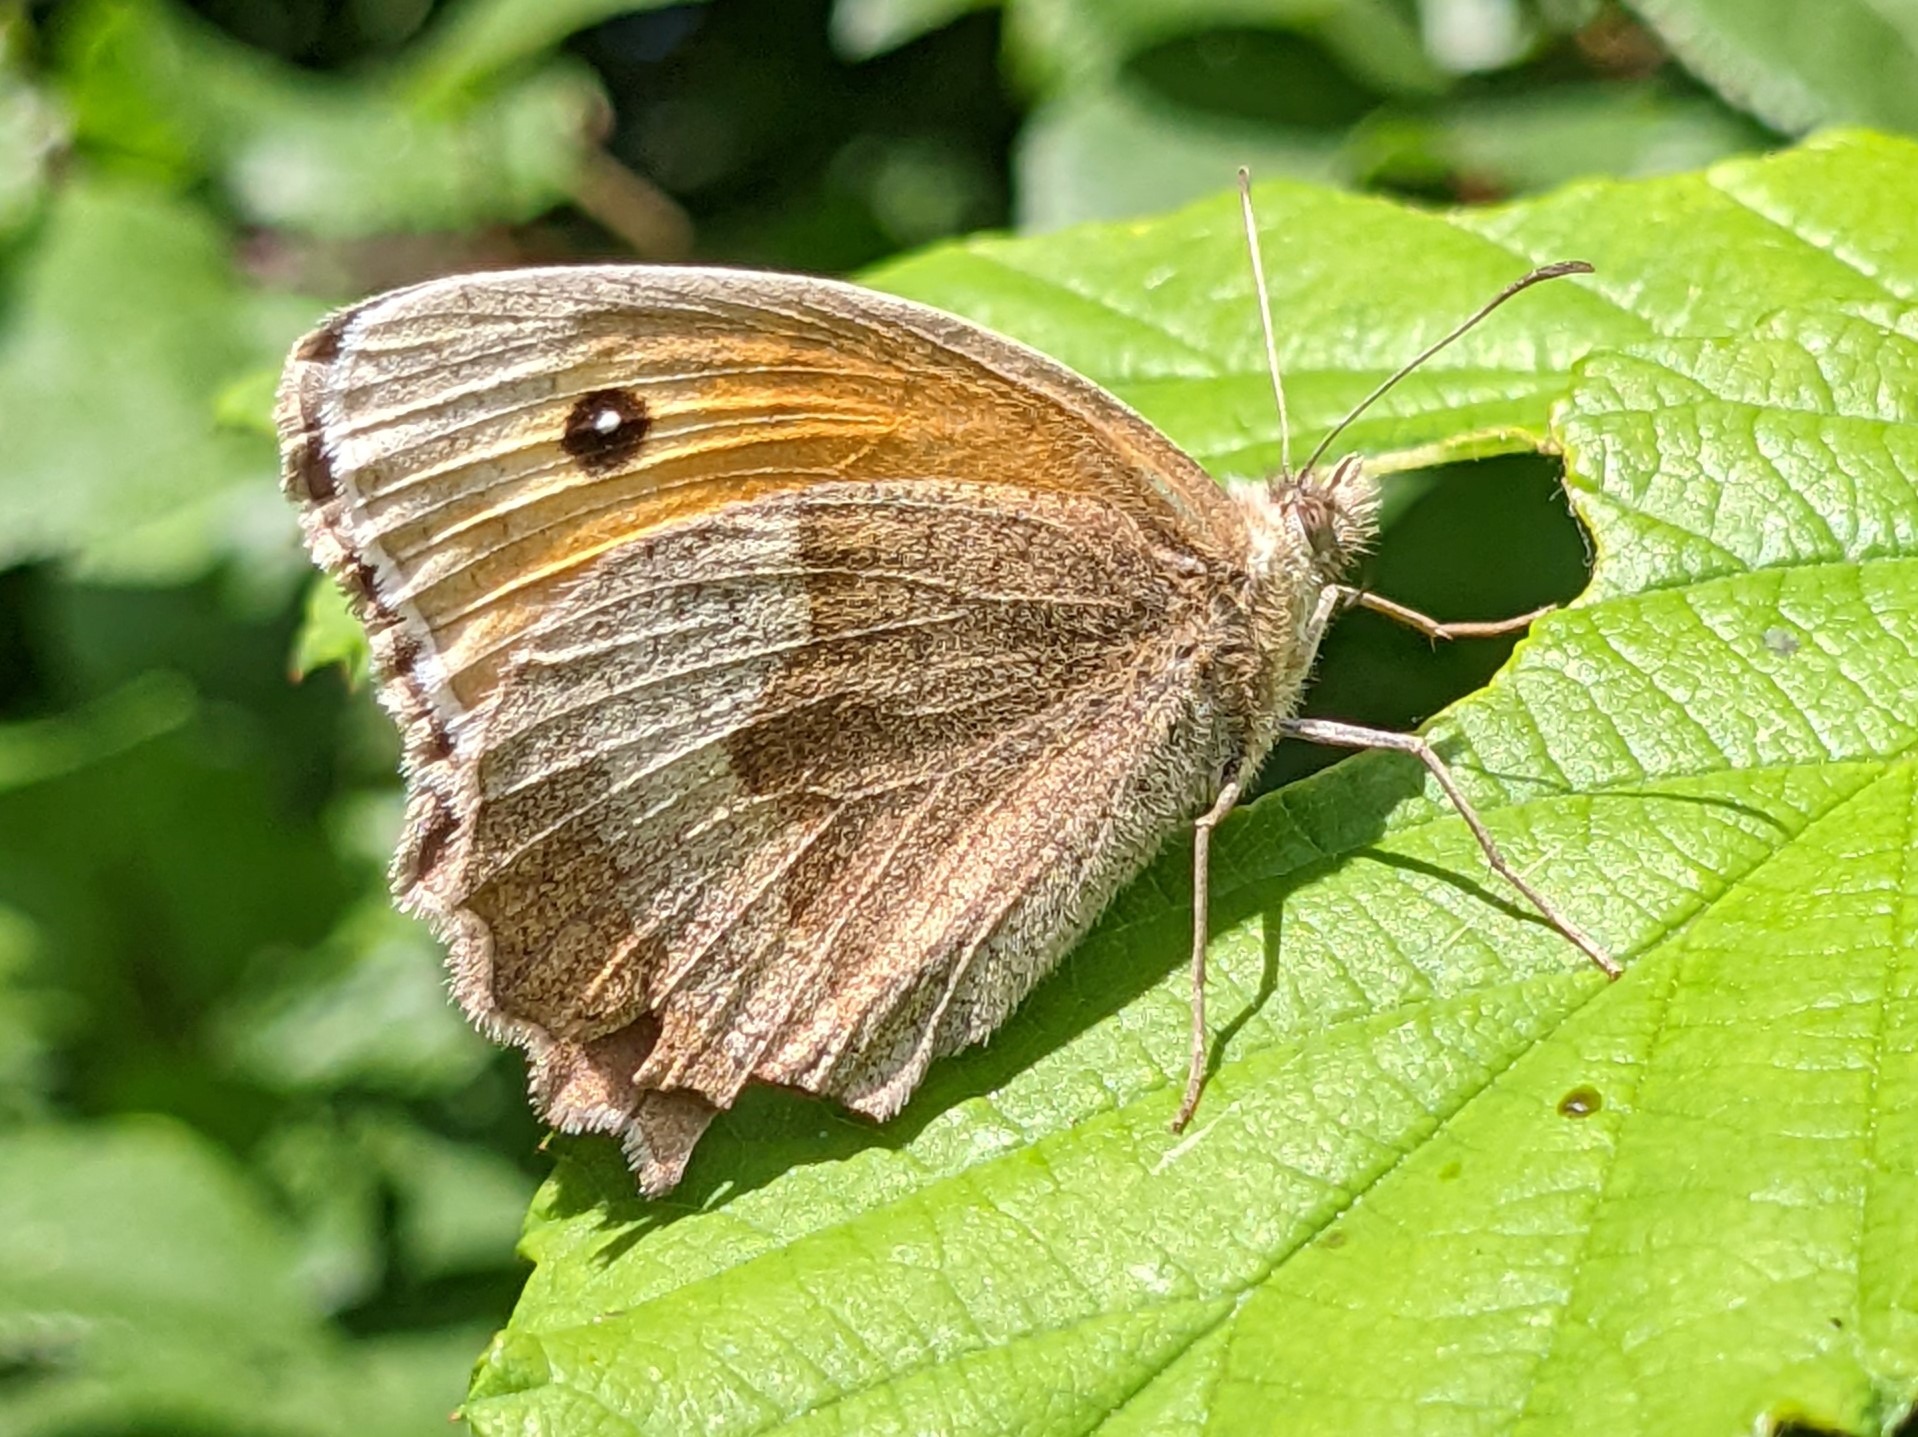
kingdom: Animalia
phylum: Arthropoda
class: Insecta
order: Lepidoptera
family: Nymphalidae
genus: Maniola
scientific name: Maniola jurtina
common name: Græsrandøje
